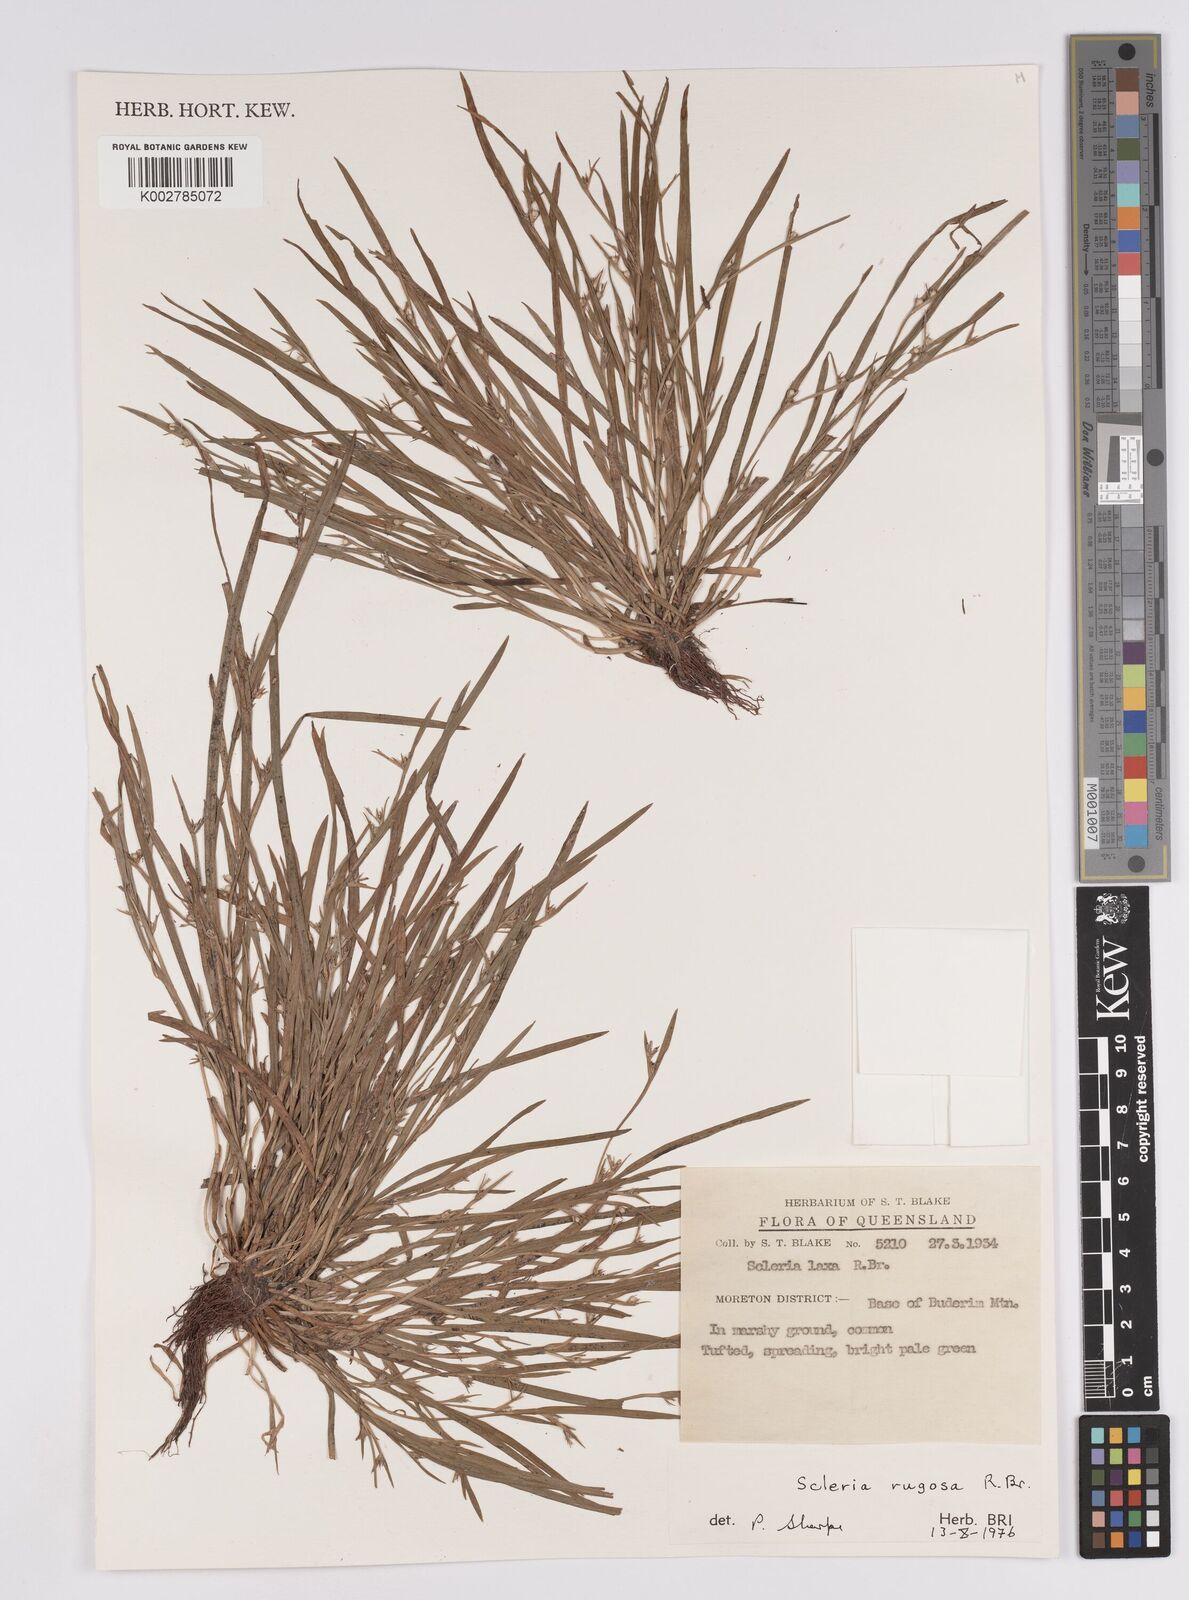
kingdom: Plantae
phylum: Tracheophyta
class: Liliopsida
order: Poales
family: Cyperaceae
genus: Scleria
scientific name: Scleria rugosa
